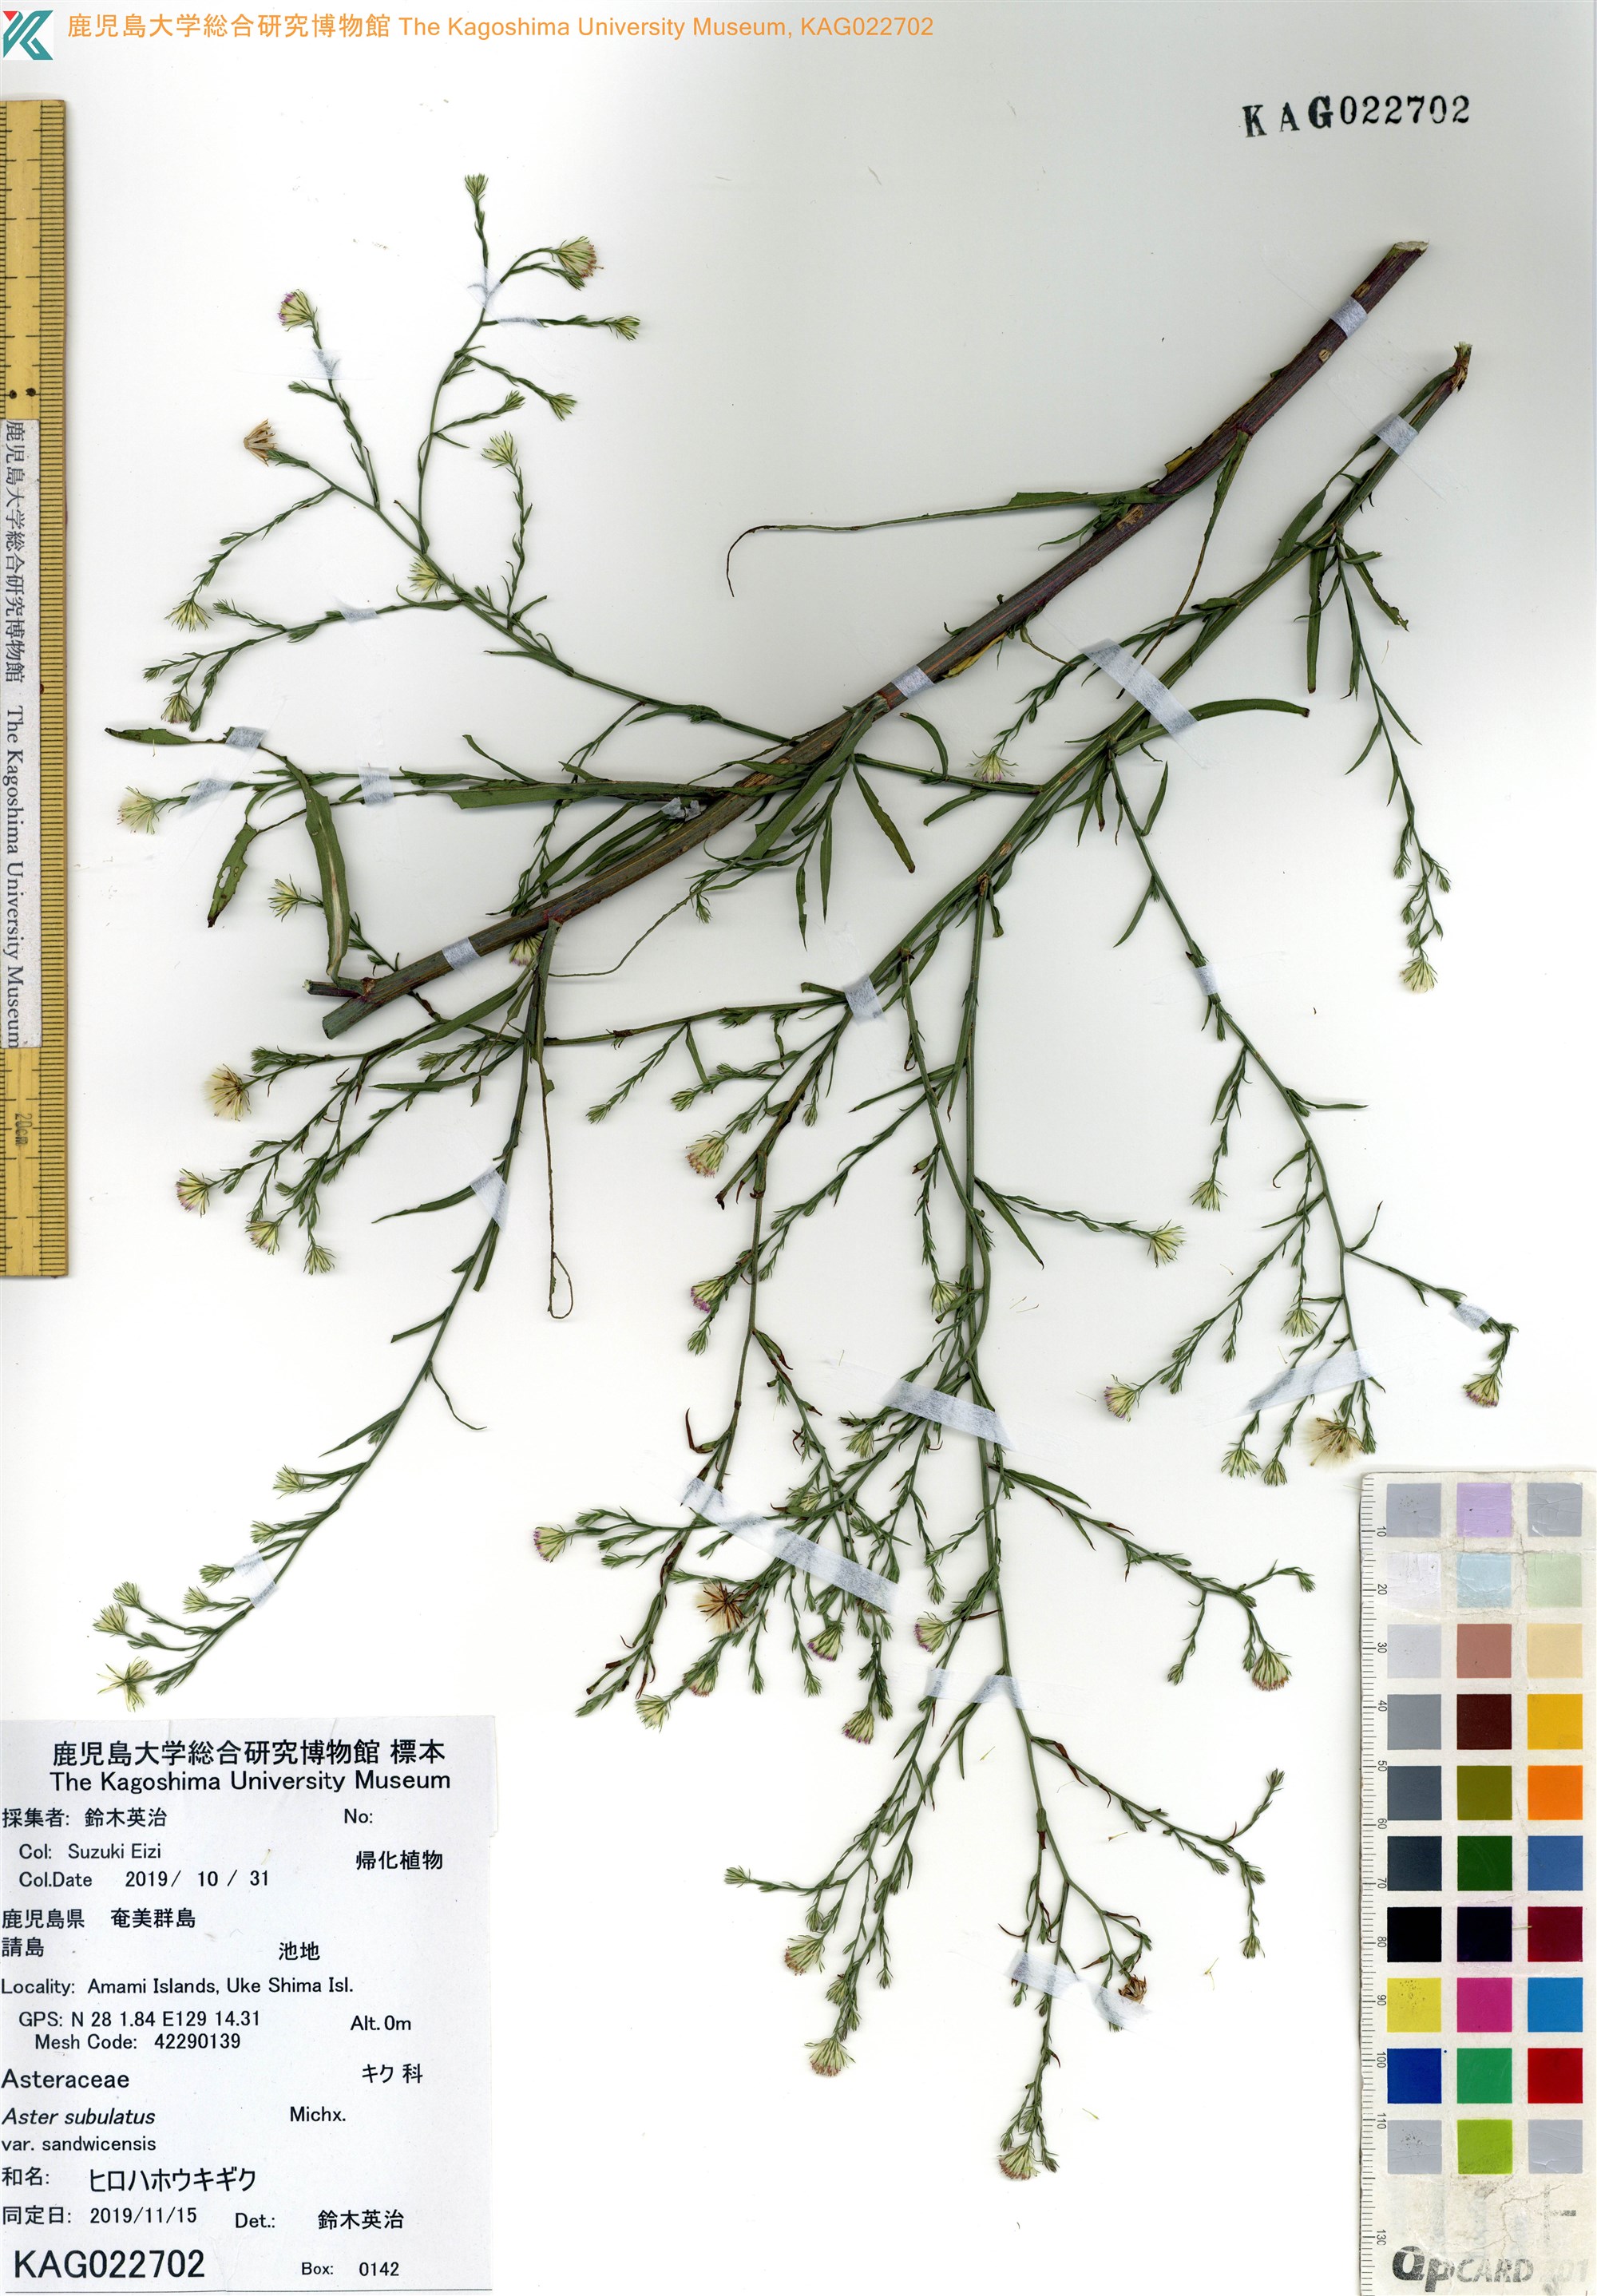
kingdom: Plantae
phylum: Tracheophyta
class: Magnoliopsida
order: Asterales
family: Asteraceae
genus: Symphyotrichum
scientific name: Symphyotrichum squamatum
